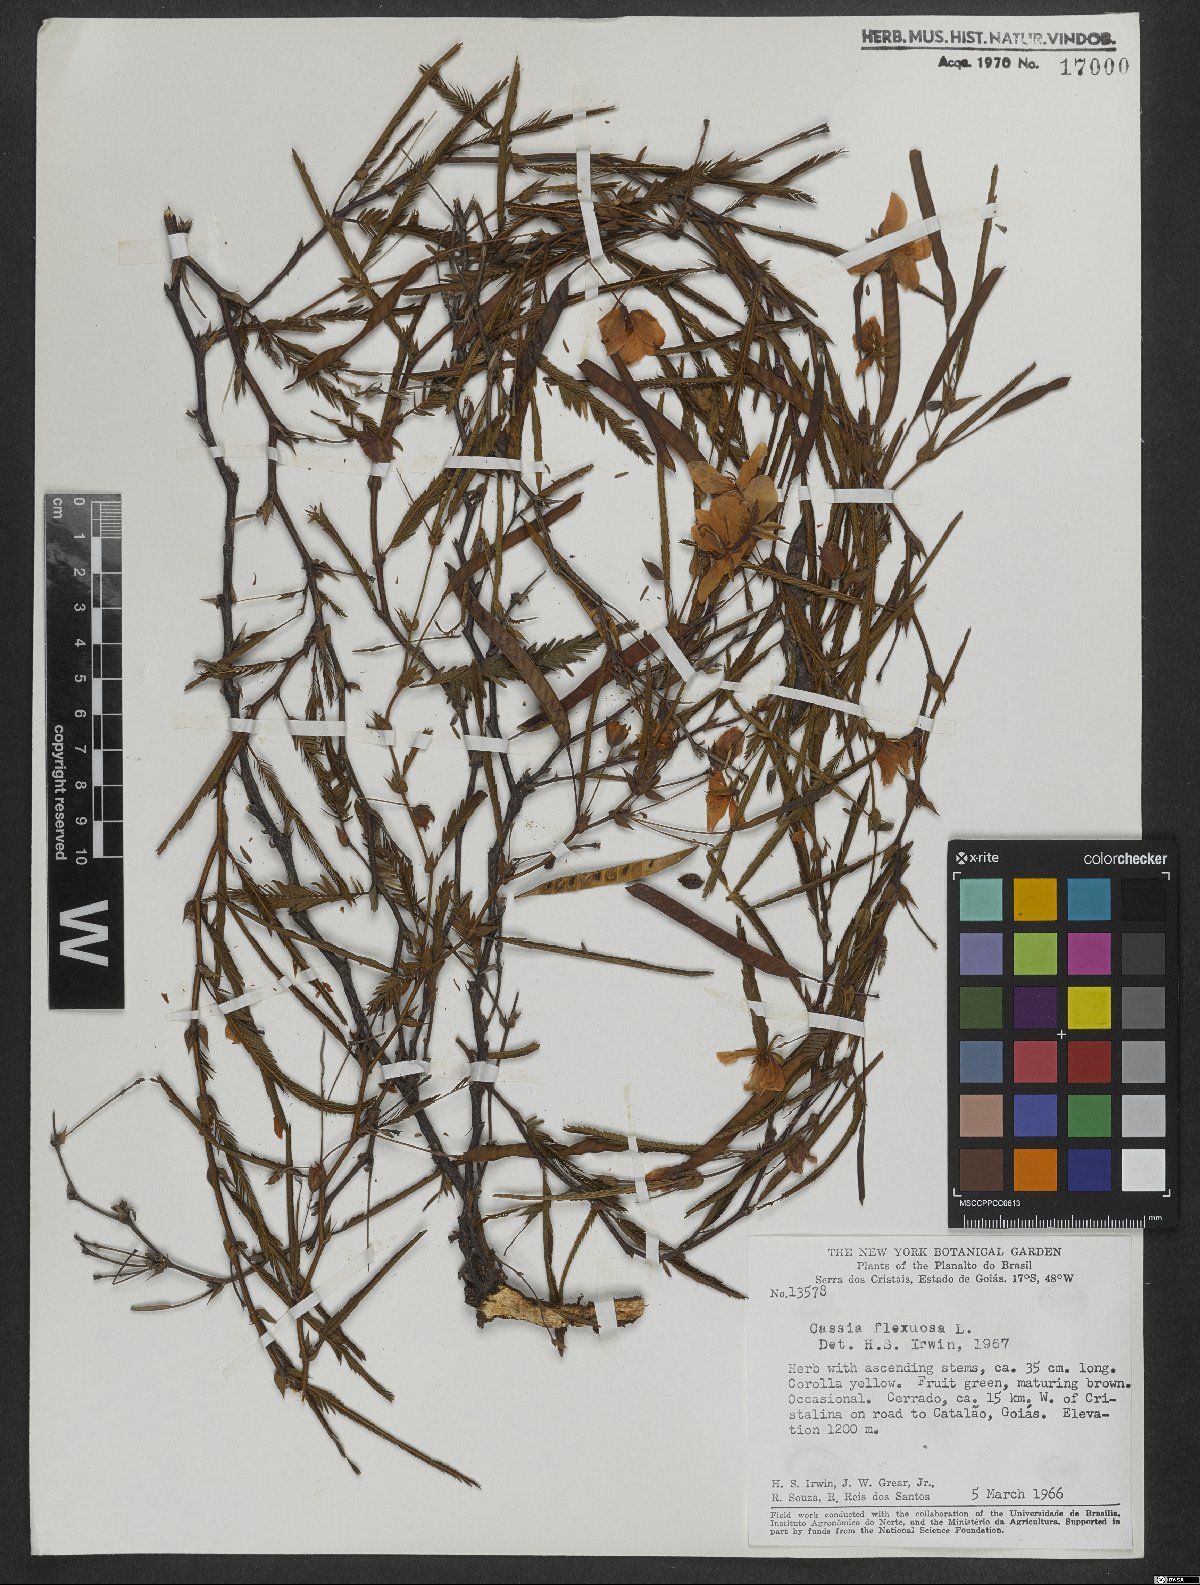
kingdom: Plantae
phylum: Tracheophyta
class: Magnoliopsida
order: Fabales
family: Fabaceae
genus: Chamaecrista
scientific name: Chamaecrista flexuosa
